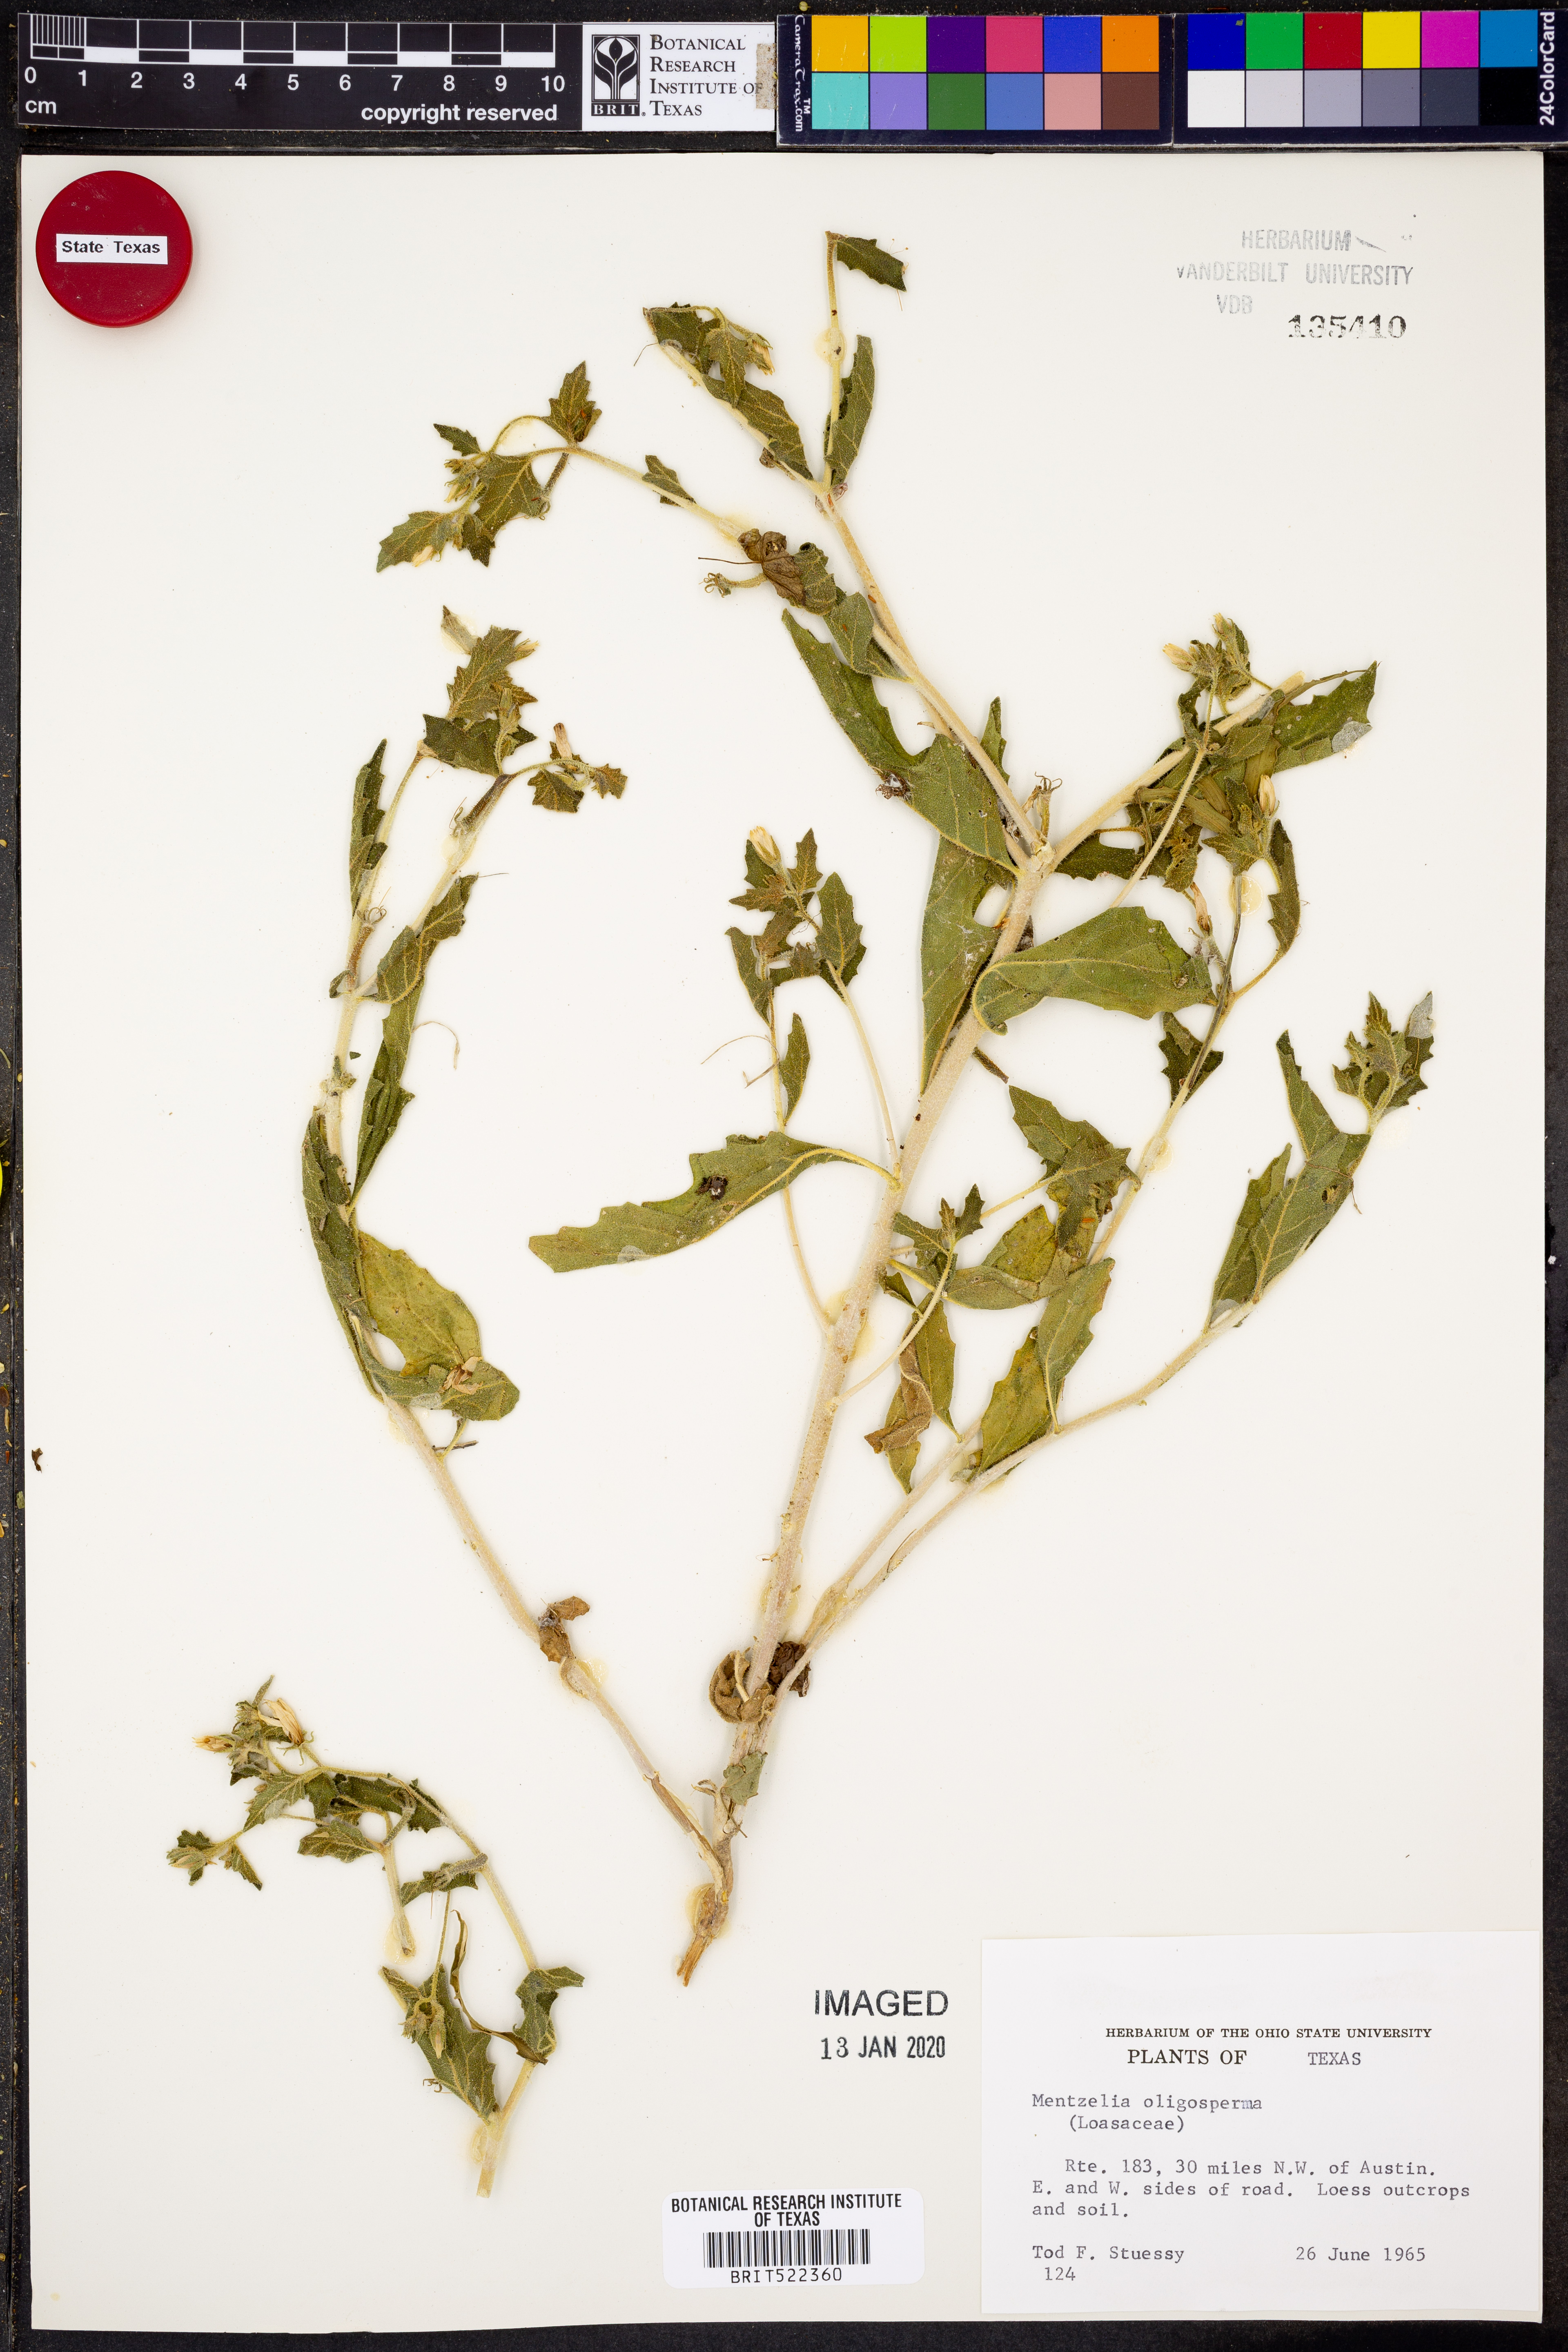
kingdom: Plantae
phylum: Tracheophyta
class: Magnoliopsida
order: Cornales
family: Loasaceae
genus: Mentzelia
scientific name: Mentzelia oligosperma
